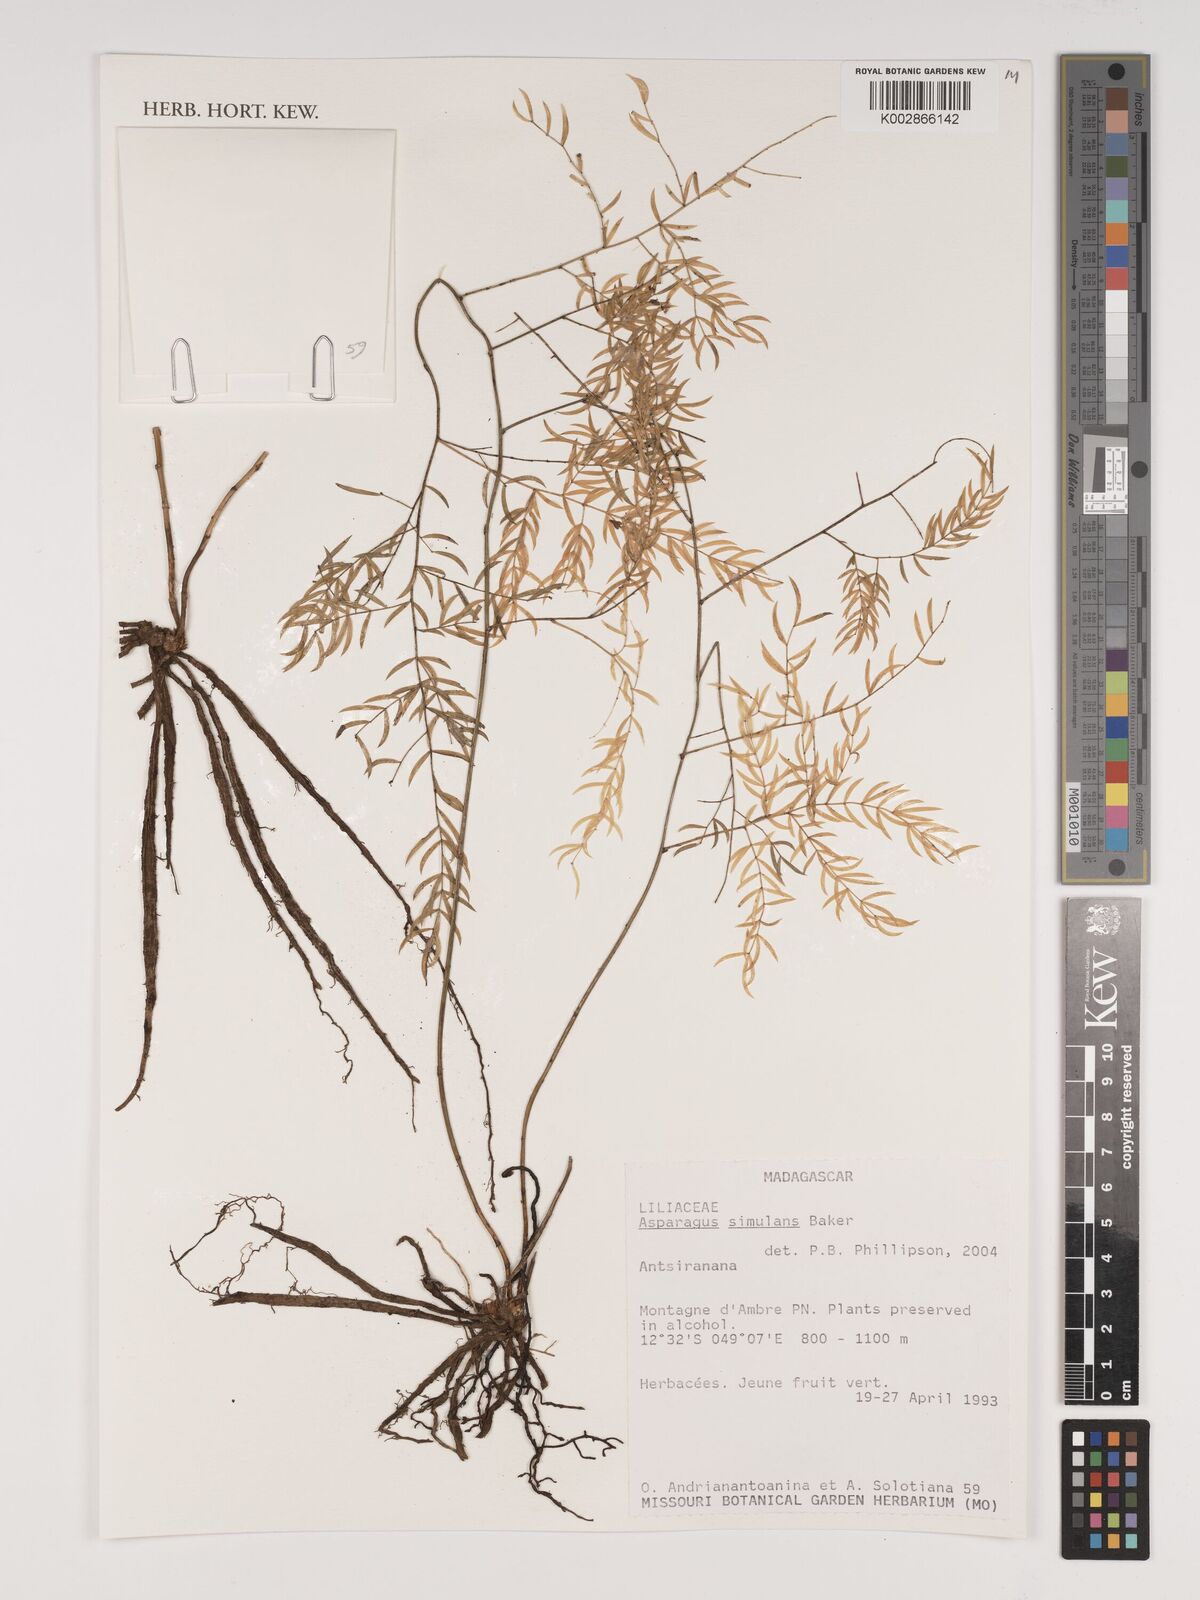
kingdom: Plantae
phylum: Tracheophyta
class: Liliopsida
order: Asparagales
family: Asparagaceae
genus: Asparagus
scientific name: Asparagus simulans
